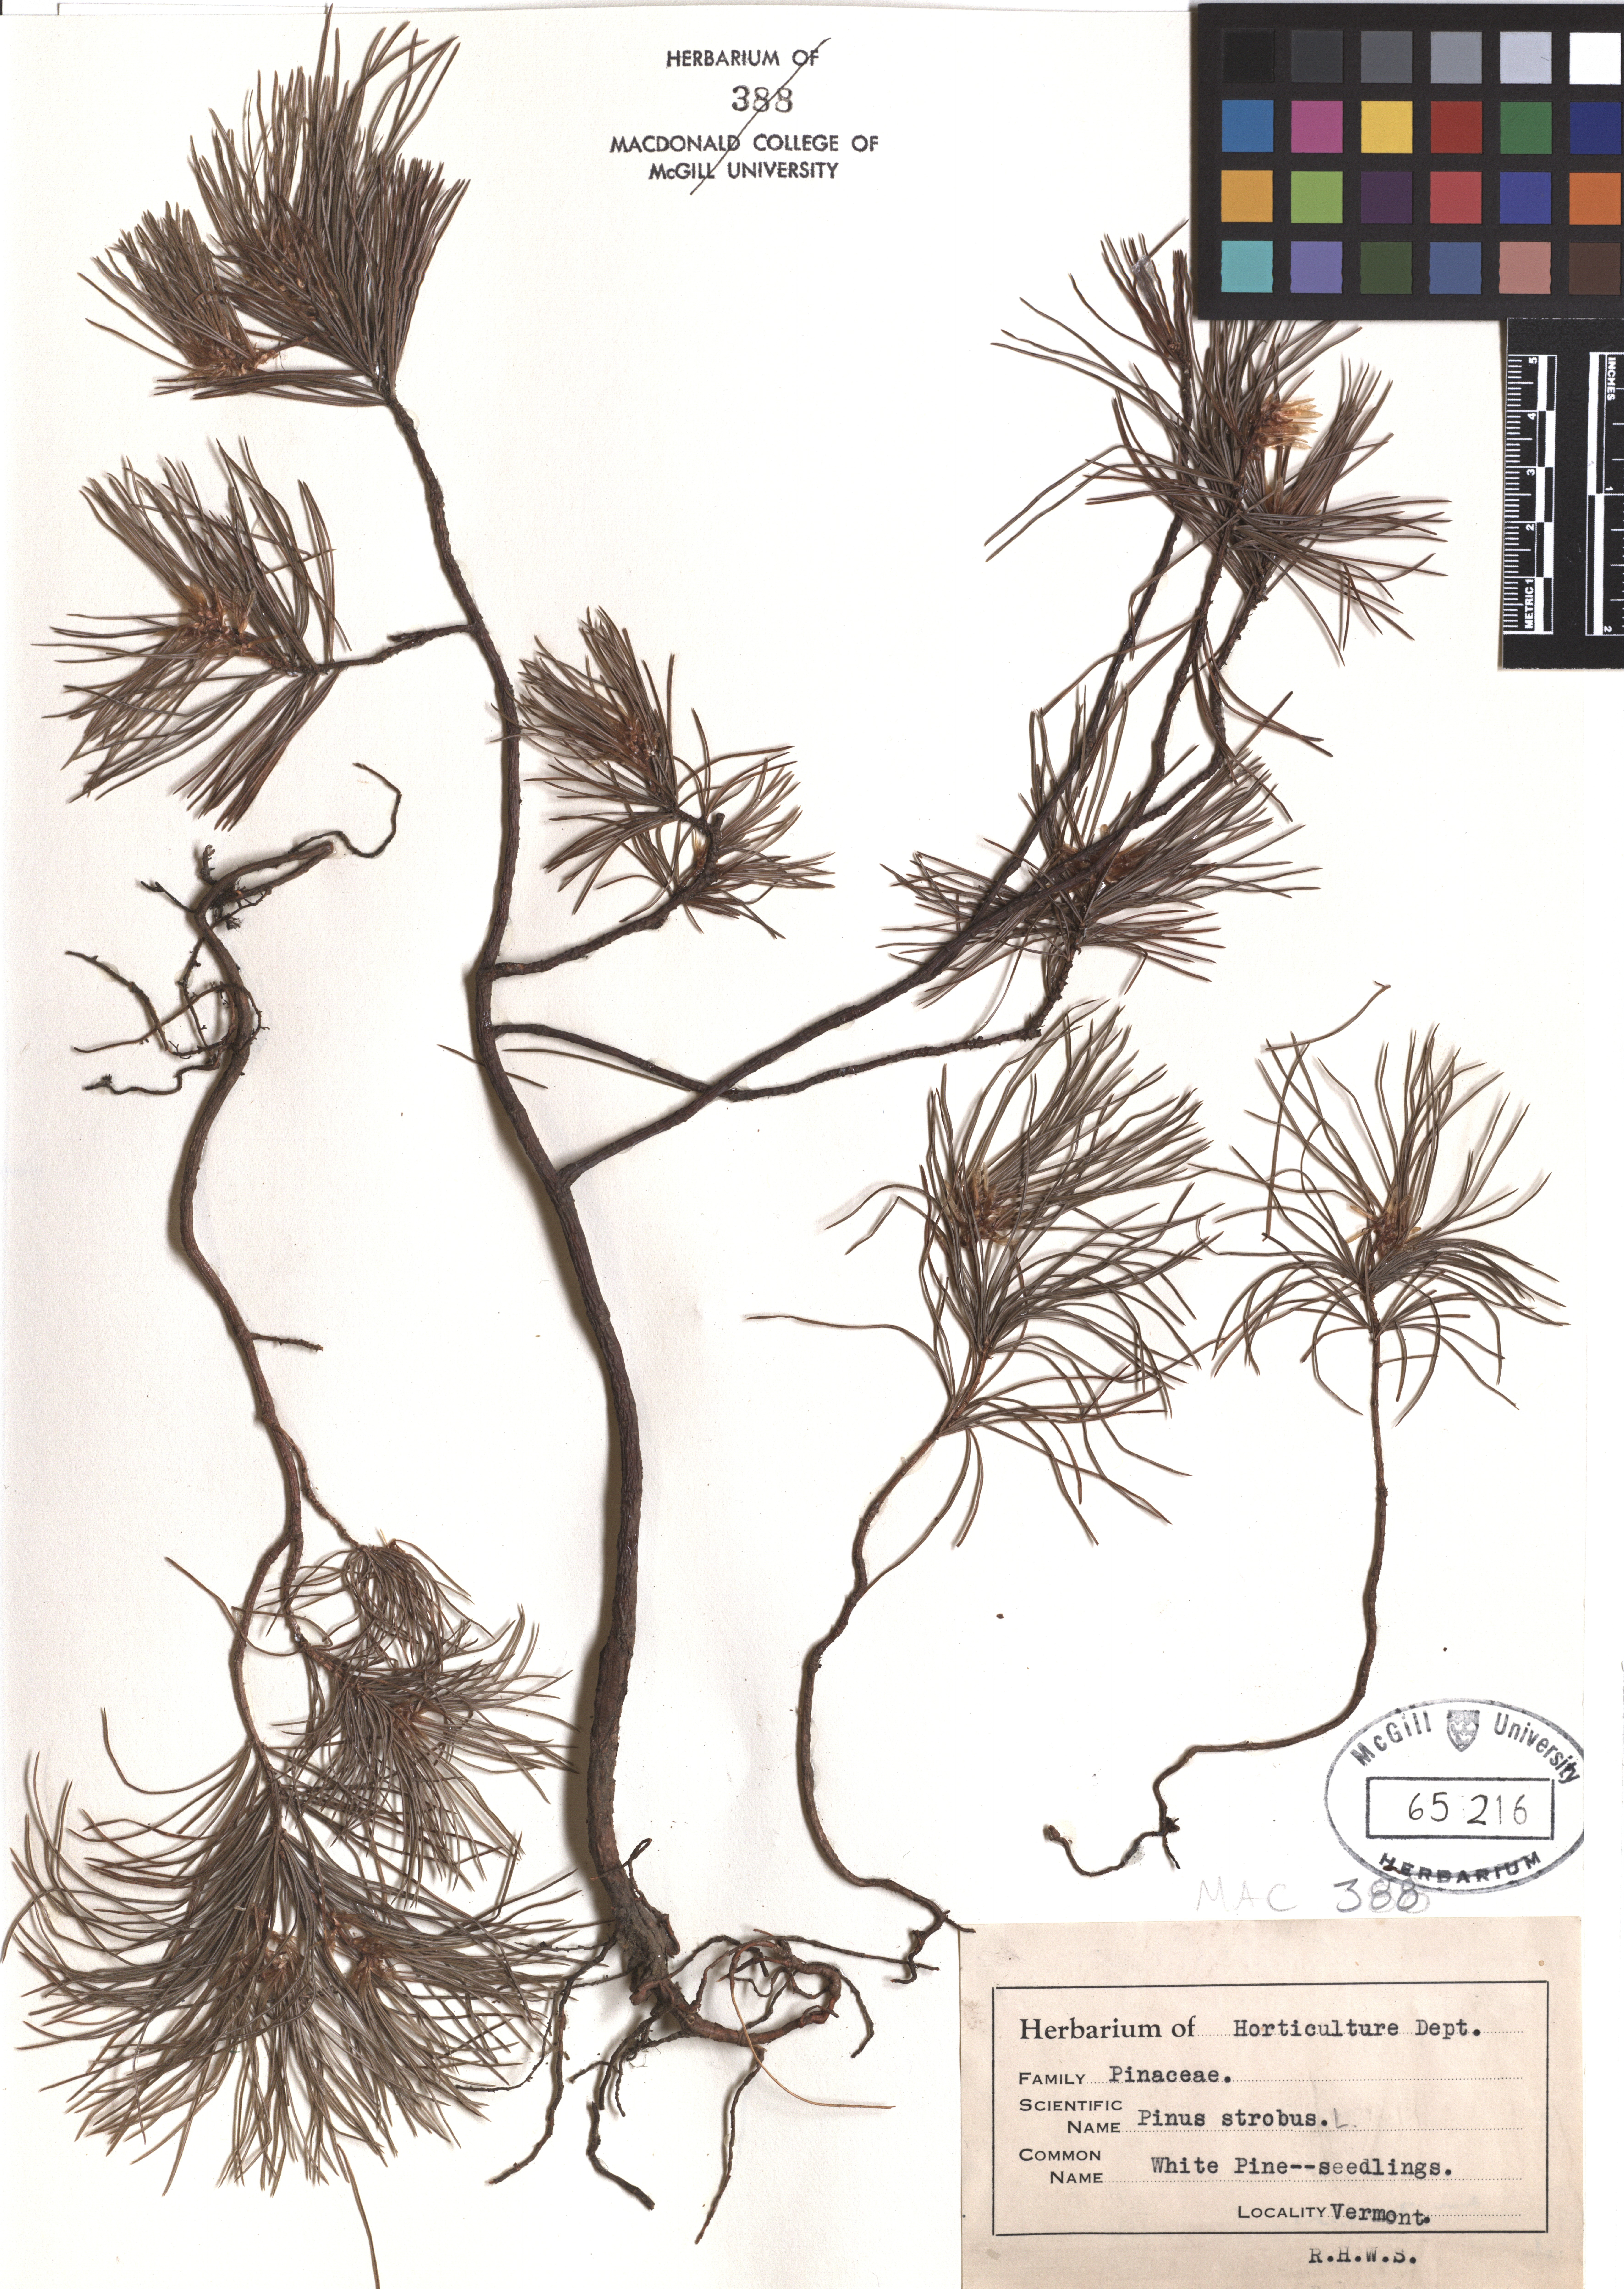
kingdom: Plantae
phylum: Tracheophyta
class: Pinopsida
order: Pinales
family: Pinaceae
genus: Pinus
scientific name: Pinus strobus
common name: Weymouth pine
